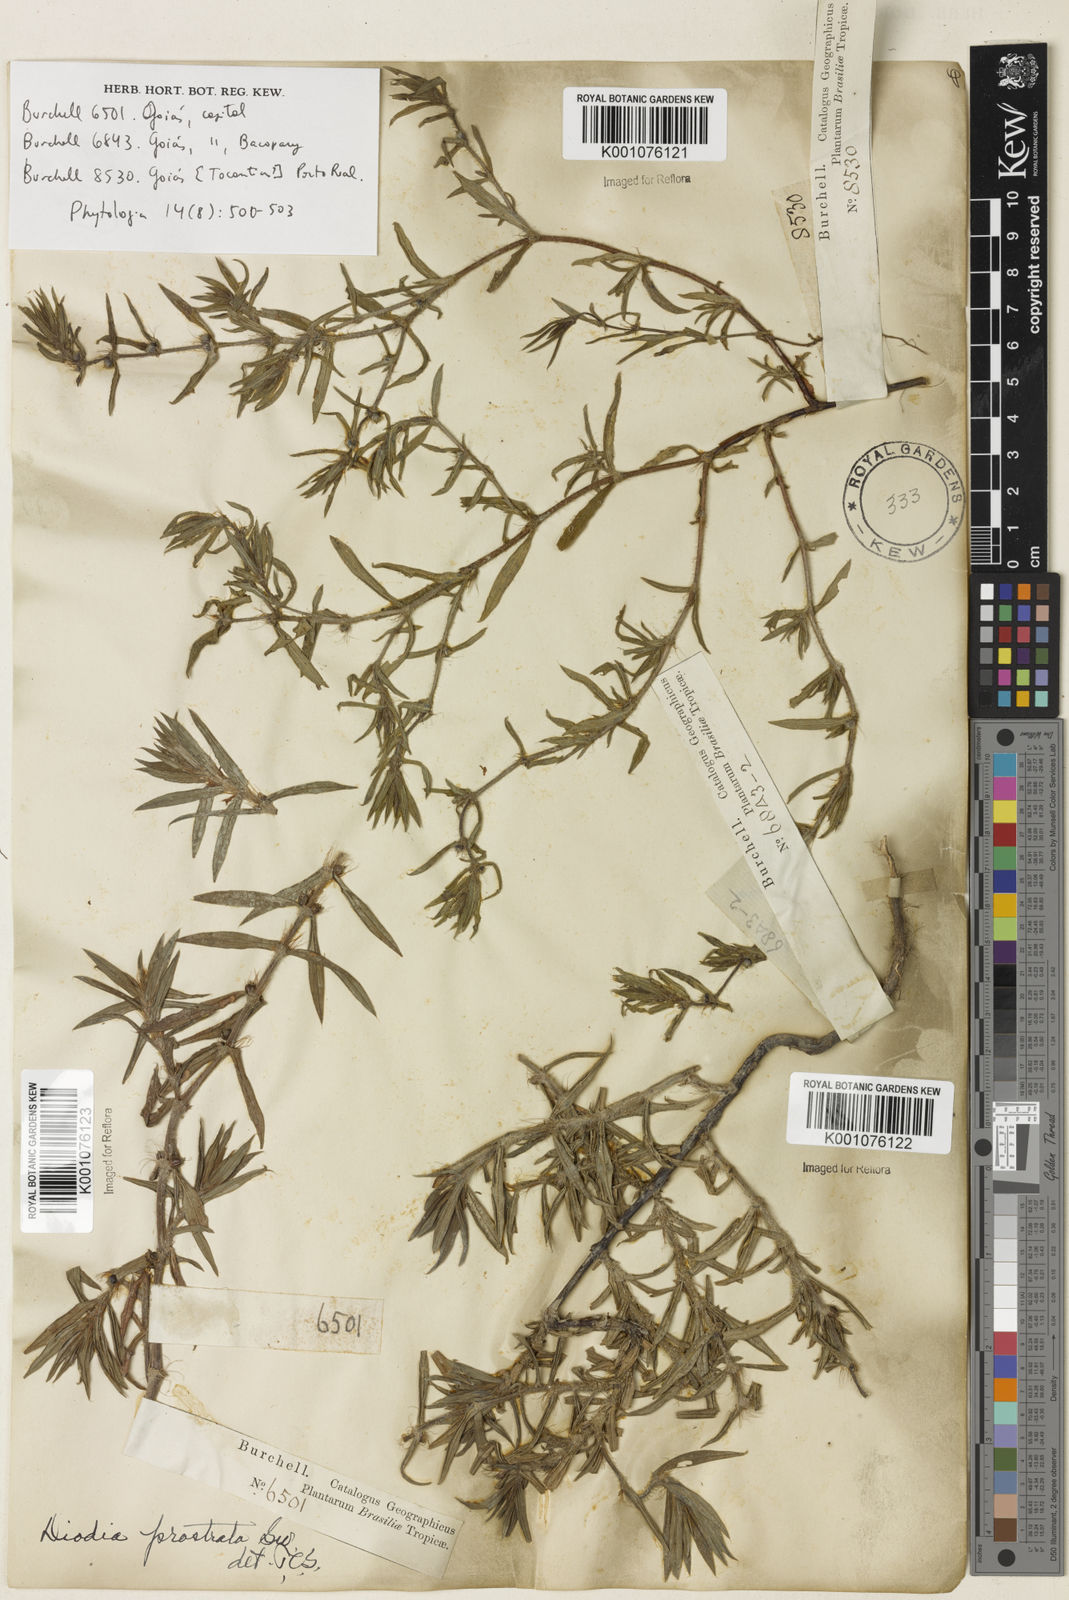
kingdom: Plantae
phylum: Tracheophyta
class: Magnoliopsida
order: Gentianales
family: Rubiaceae
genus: Hexasepalum
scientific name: Hexasepalum teres
